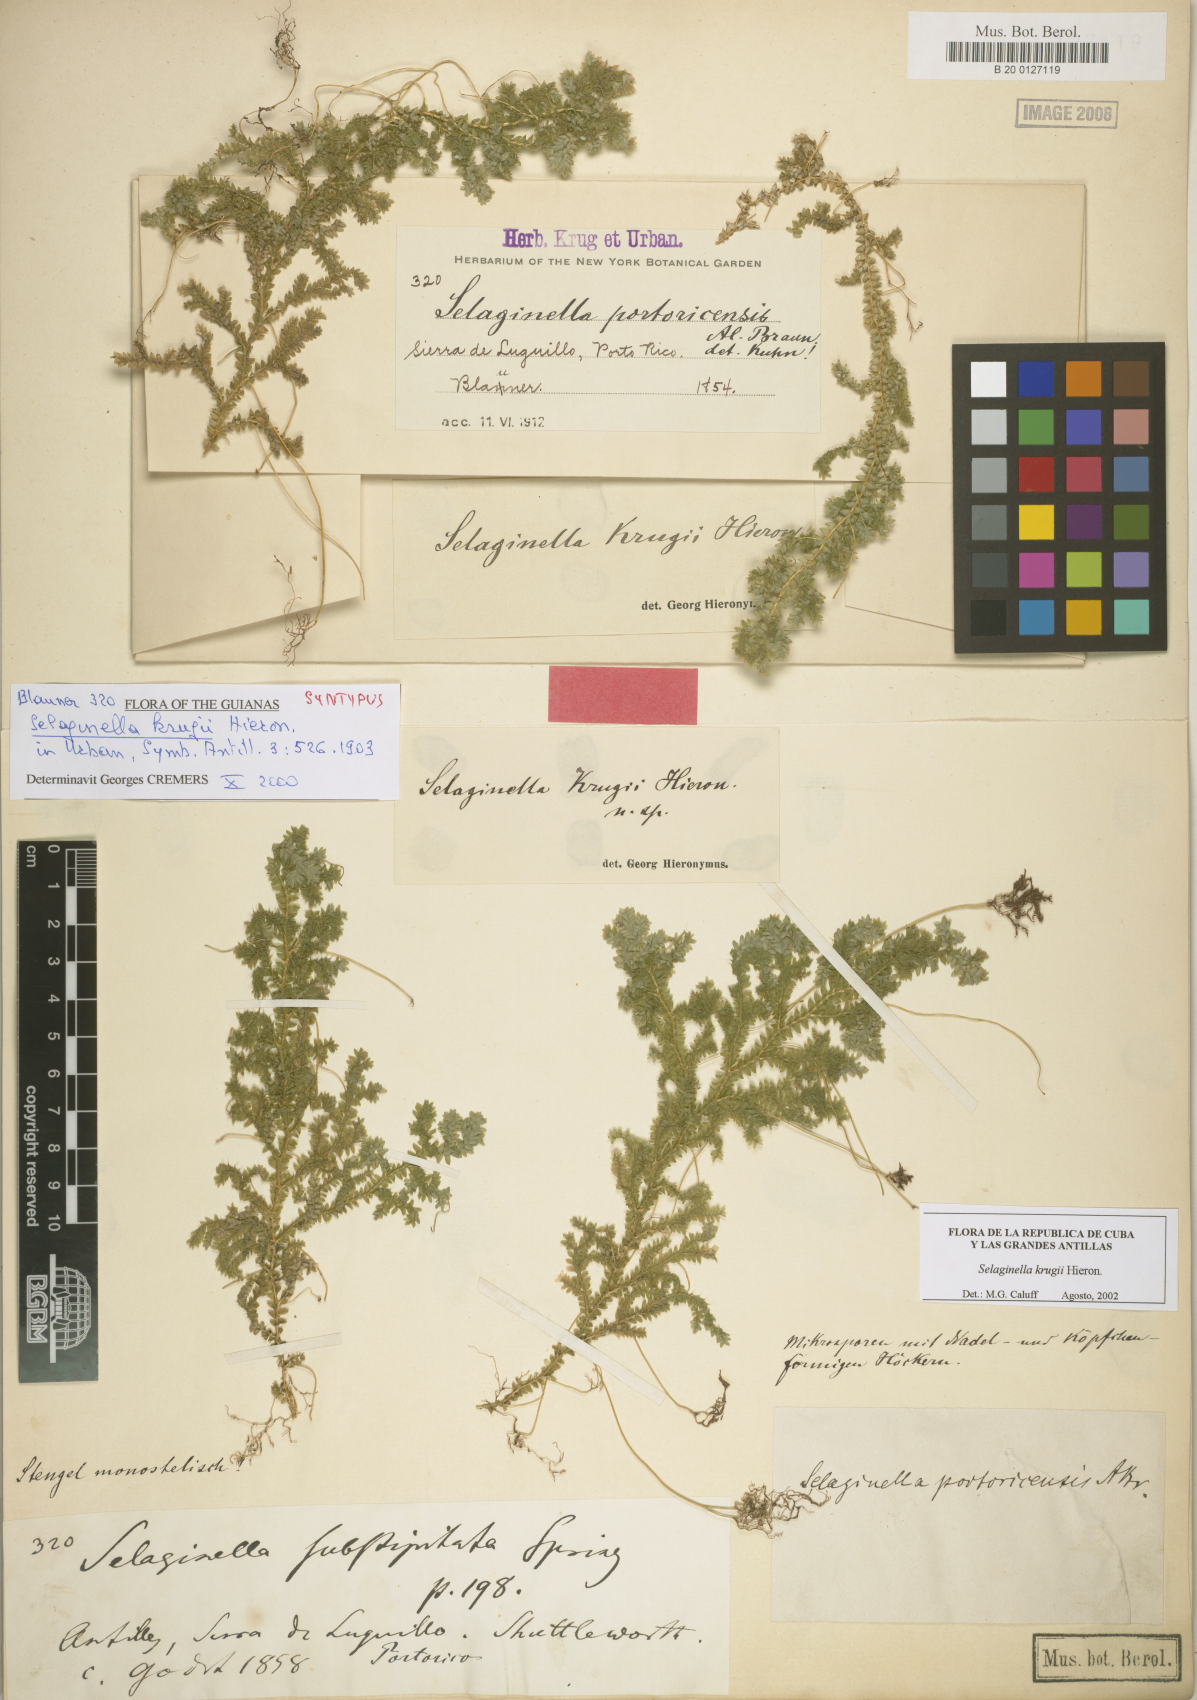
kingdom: Plantae
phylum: Tracheophyta
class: Lycopodiopsida
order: Selaginellales
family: Selaginellaceae
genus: Selaginella
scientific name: Selaginella krugii
